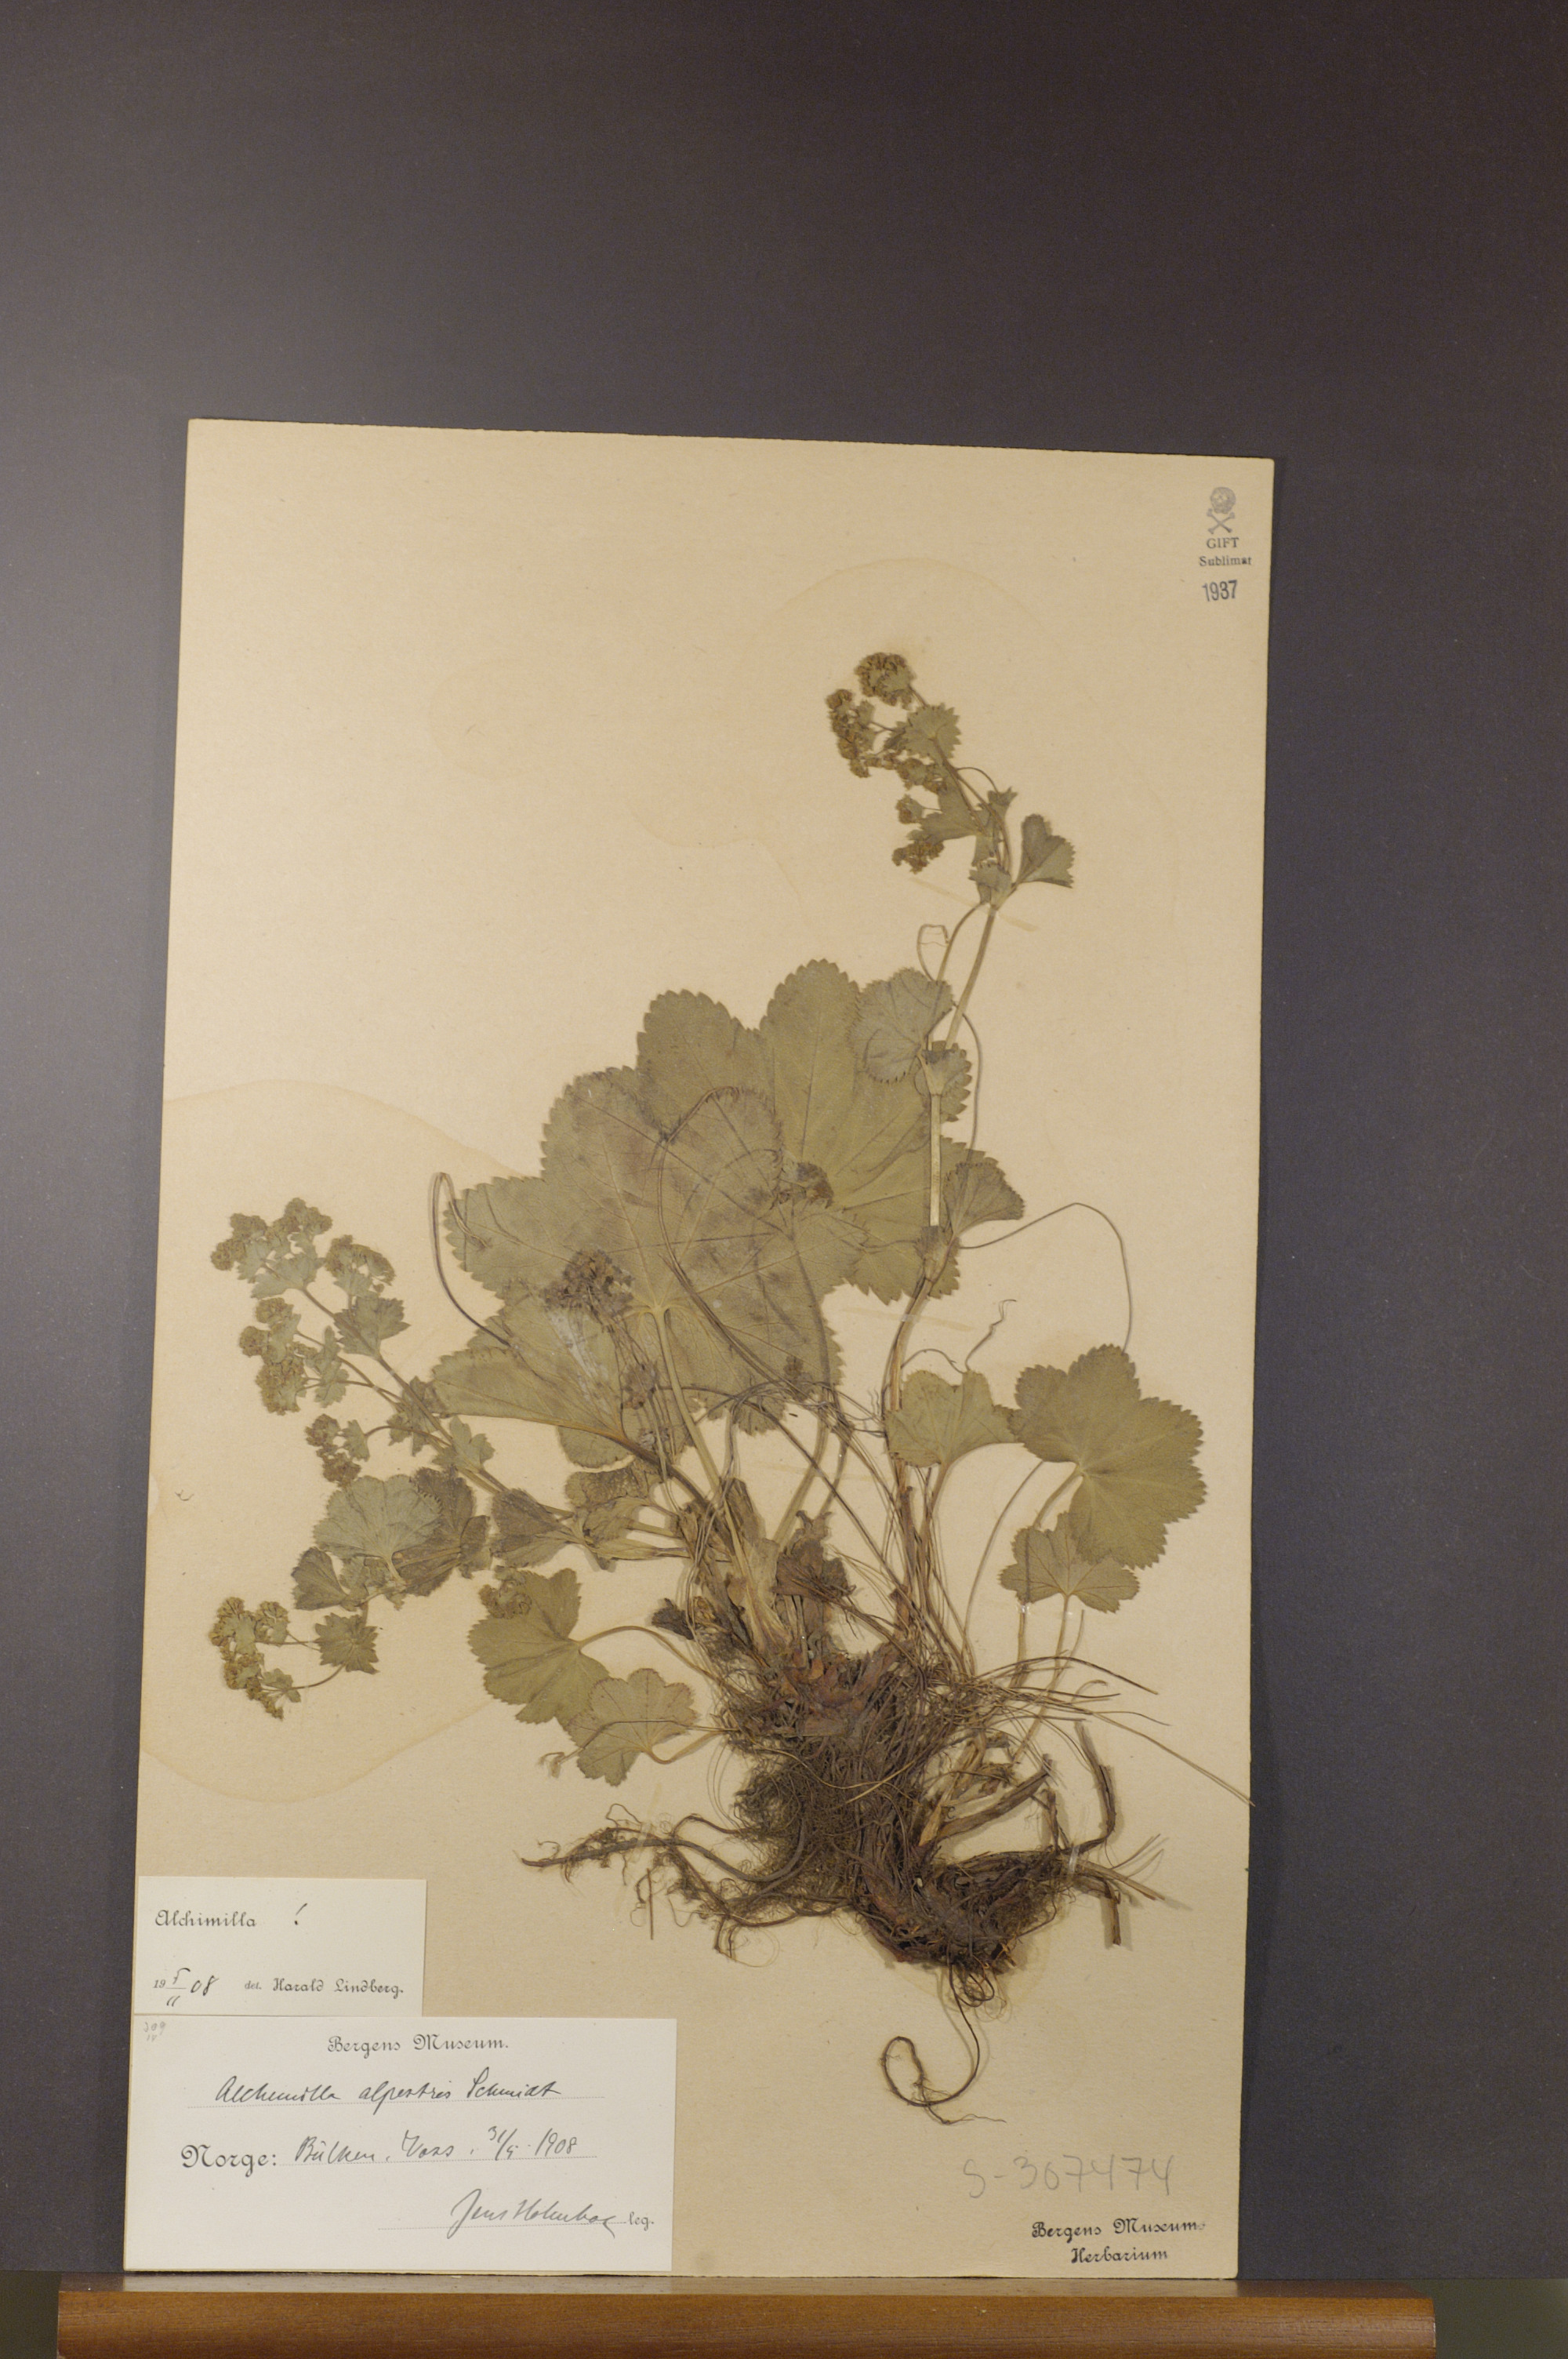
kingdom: Plantae
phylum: Tracheophyta
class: Magnoliopsida
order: Rosales
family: Rosaceae
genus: Alchemilla
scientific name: Alchemilla glabra
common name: Smooth lady's-mantle
